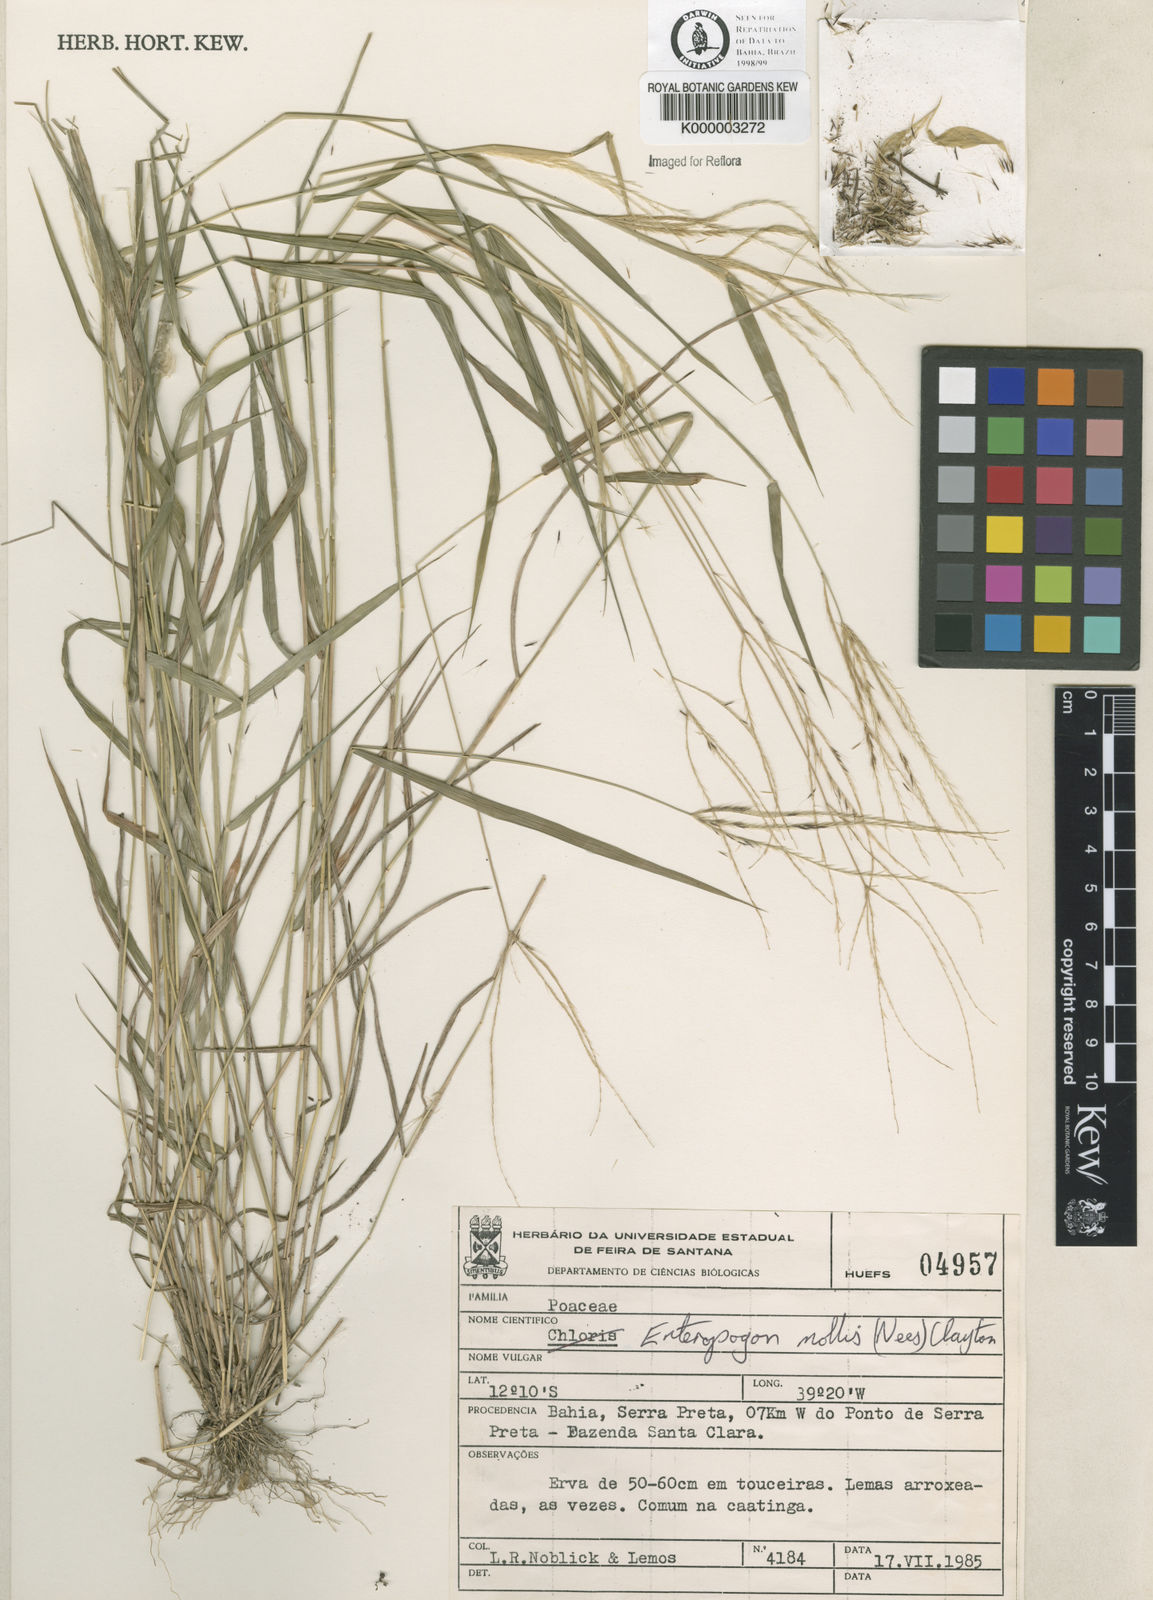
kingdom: Plantae
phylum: Tracheophyta
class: Liliopsida
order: Poales
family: Poaceae
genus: Leptochloa
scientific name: Leptochloa anisopoda
